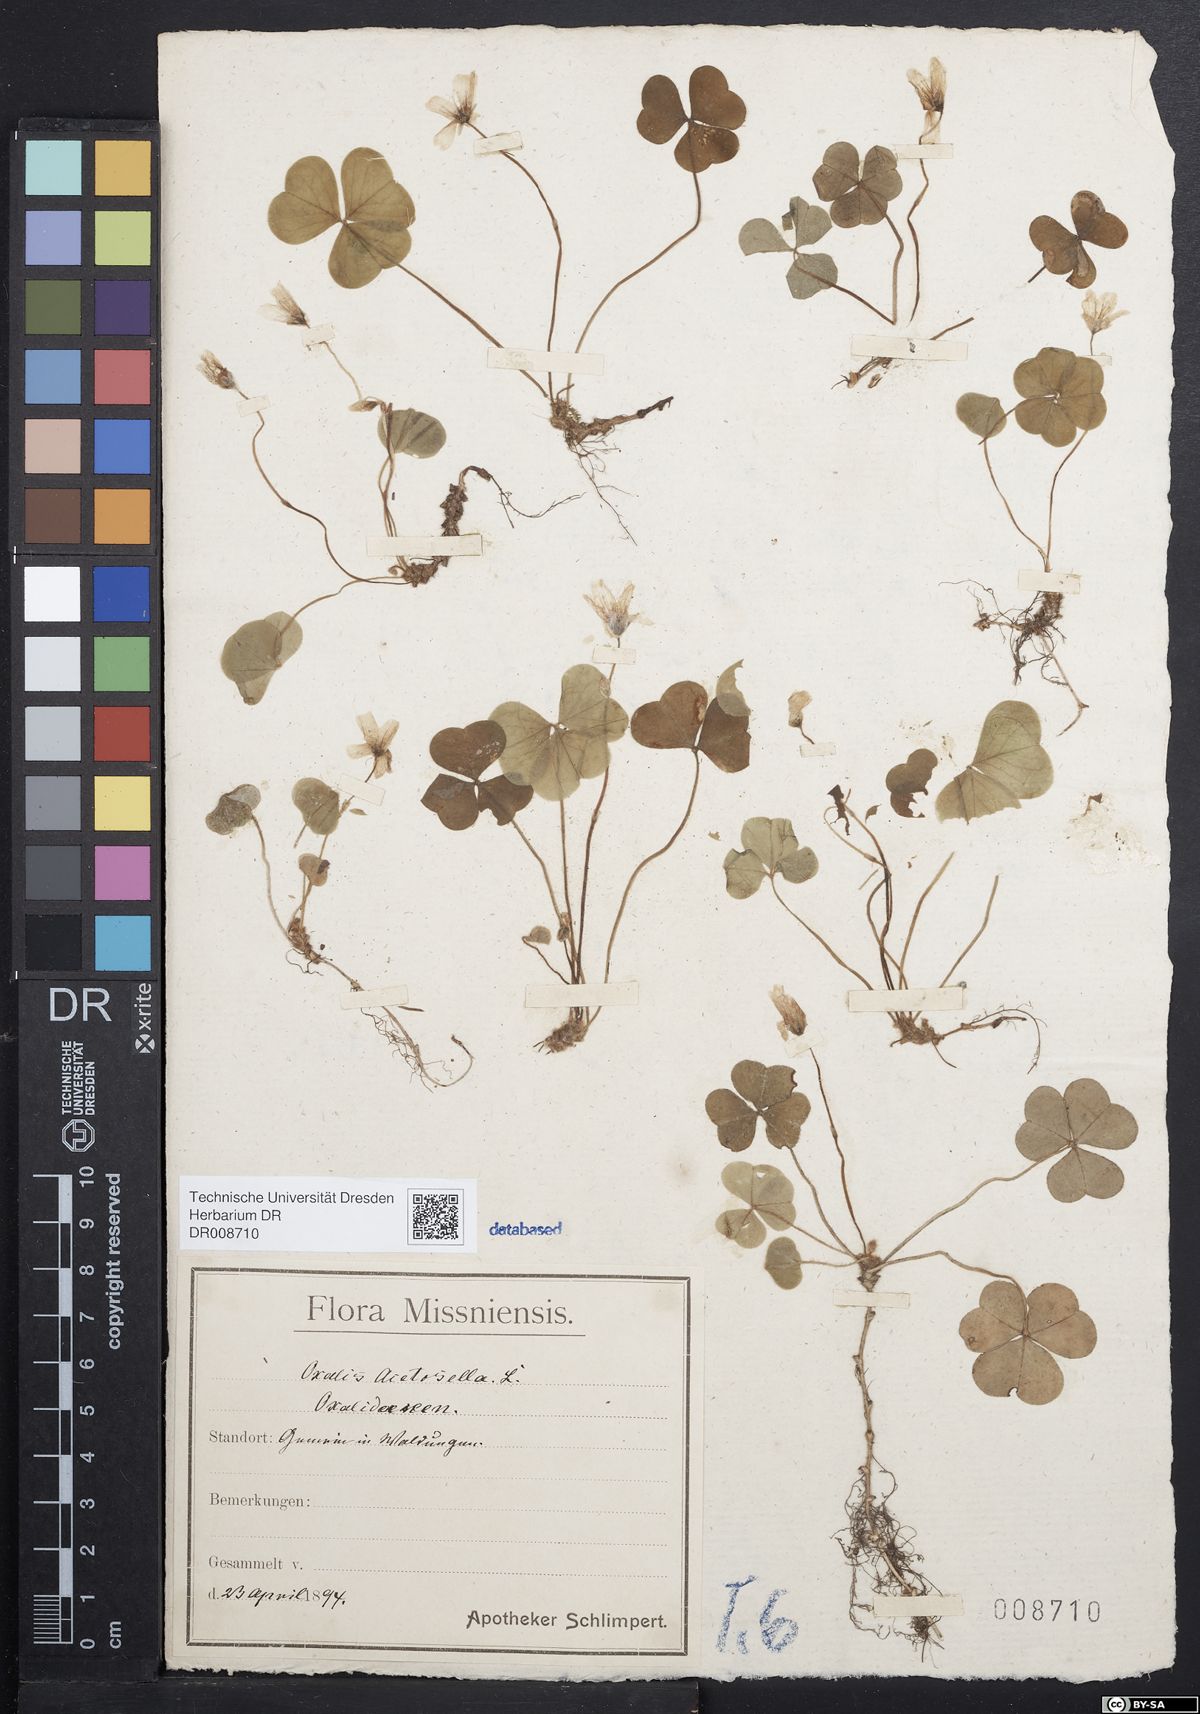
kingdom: Plantae
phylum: Tracheophyta
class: Magnoliopsida
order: Oxalidales
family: Oxalidaceae
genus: Oxalis
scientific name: Oxalis acetosella
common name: Wood-sorrel
